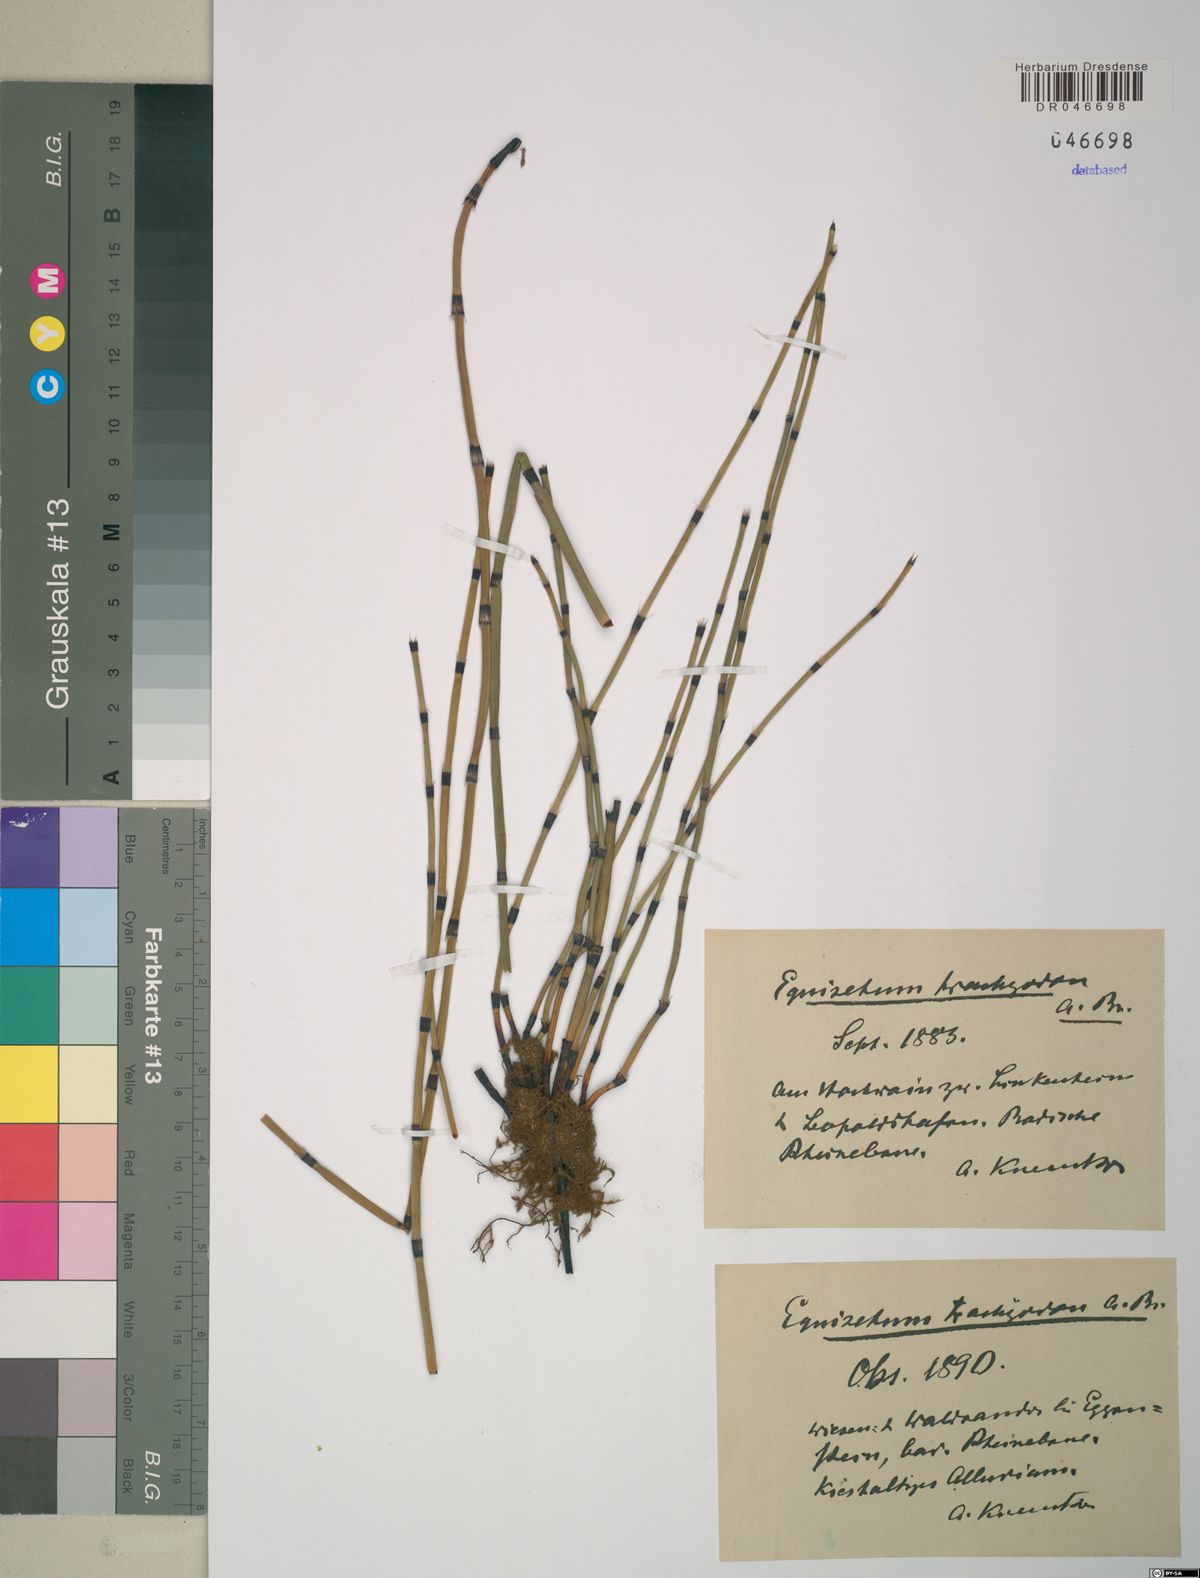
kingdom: Plantae
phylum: Tracheophyta
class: Polypodiopsida
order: Equisetales
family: Equisetaceae
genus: Equisetum
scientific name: Equisetum trachyodon
